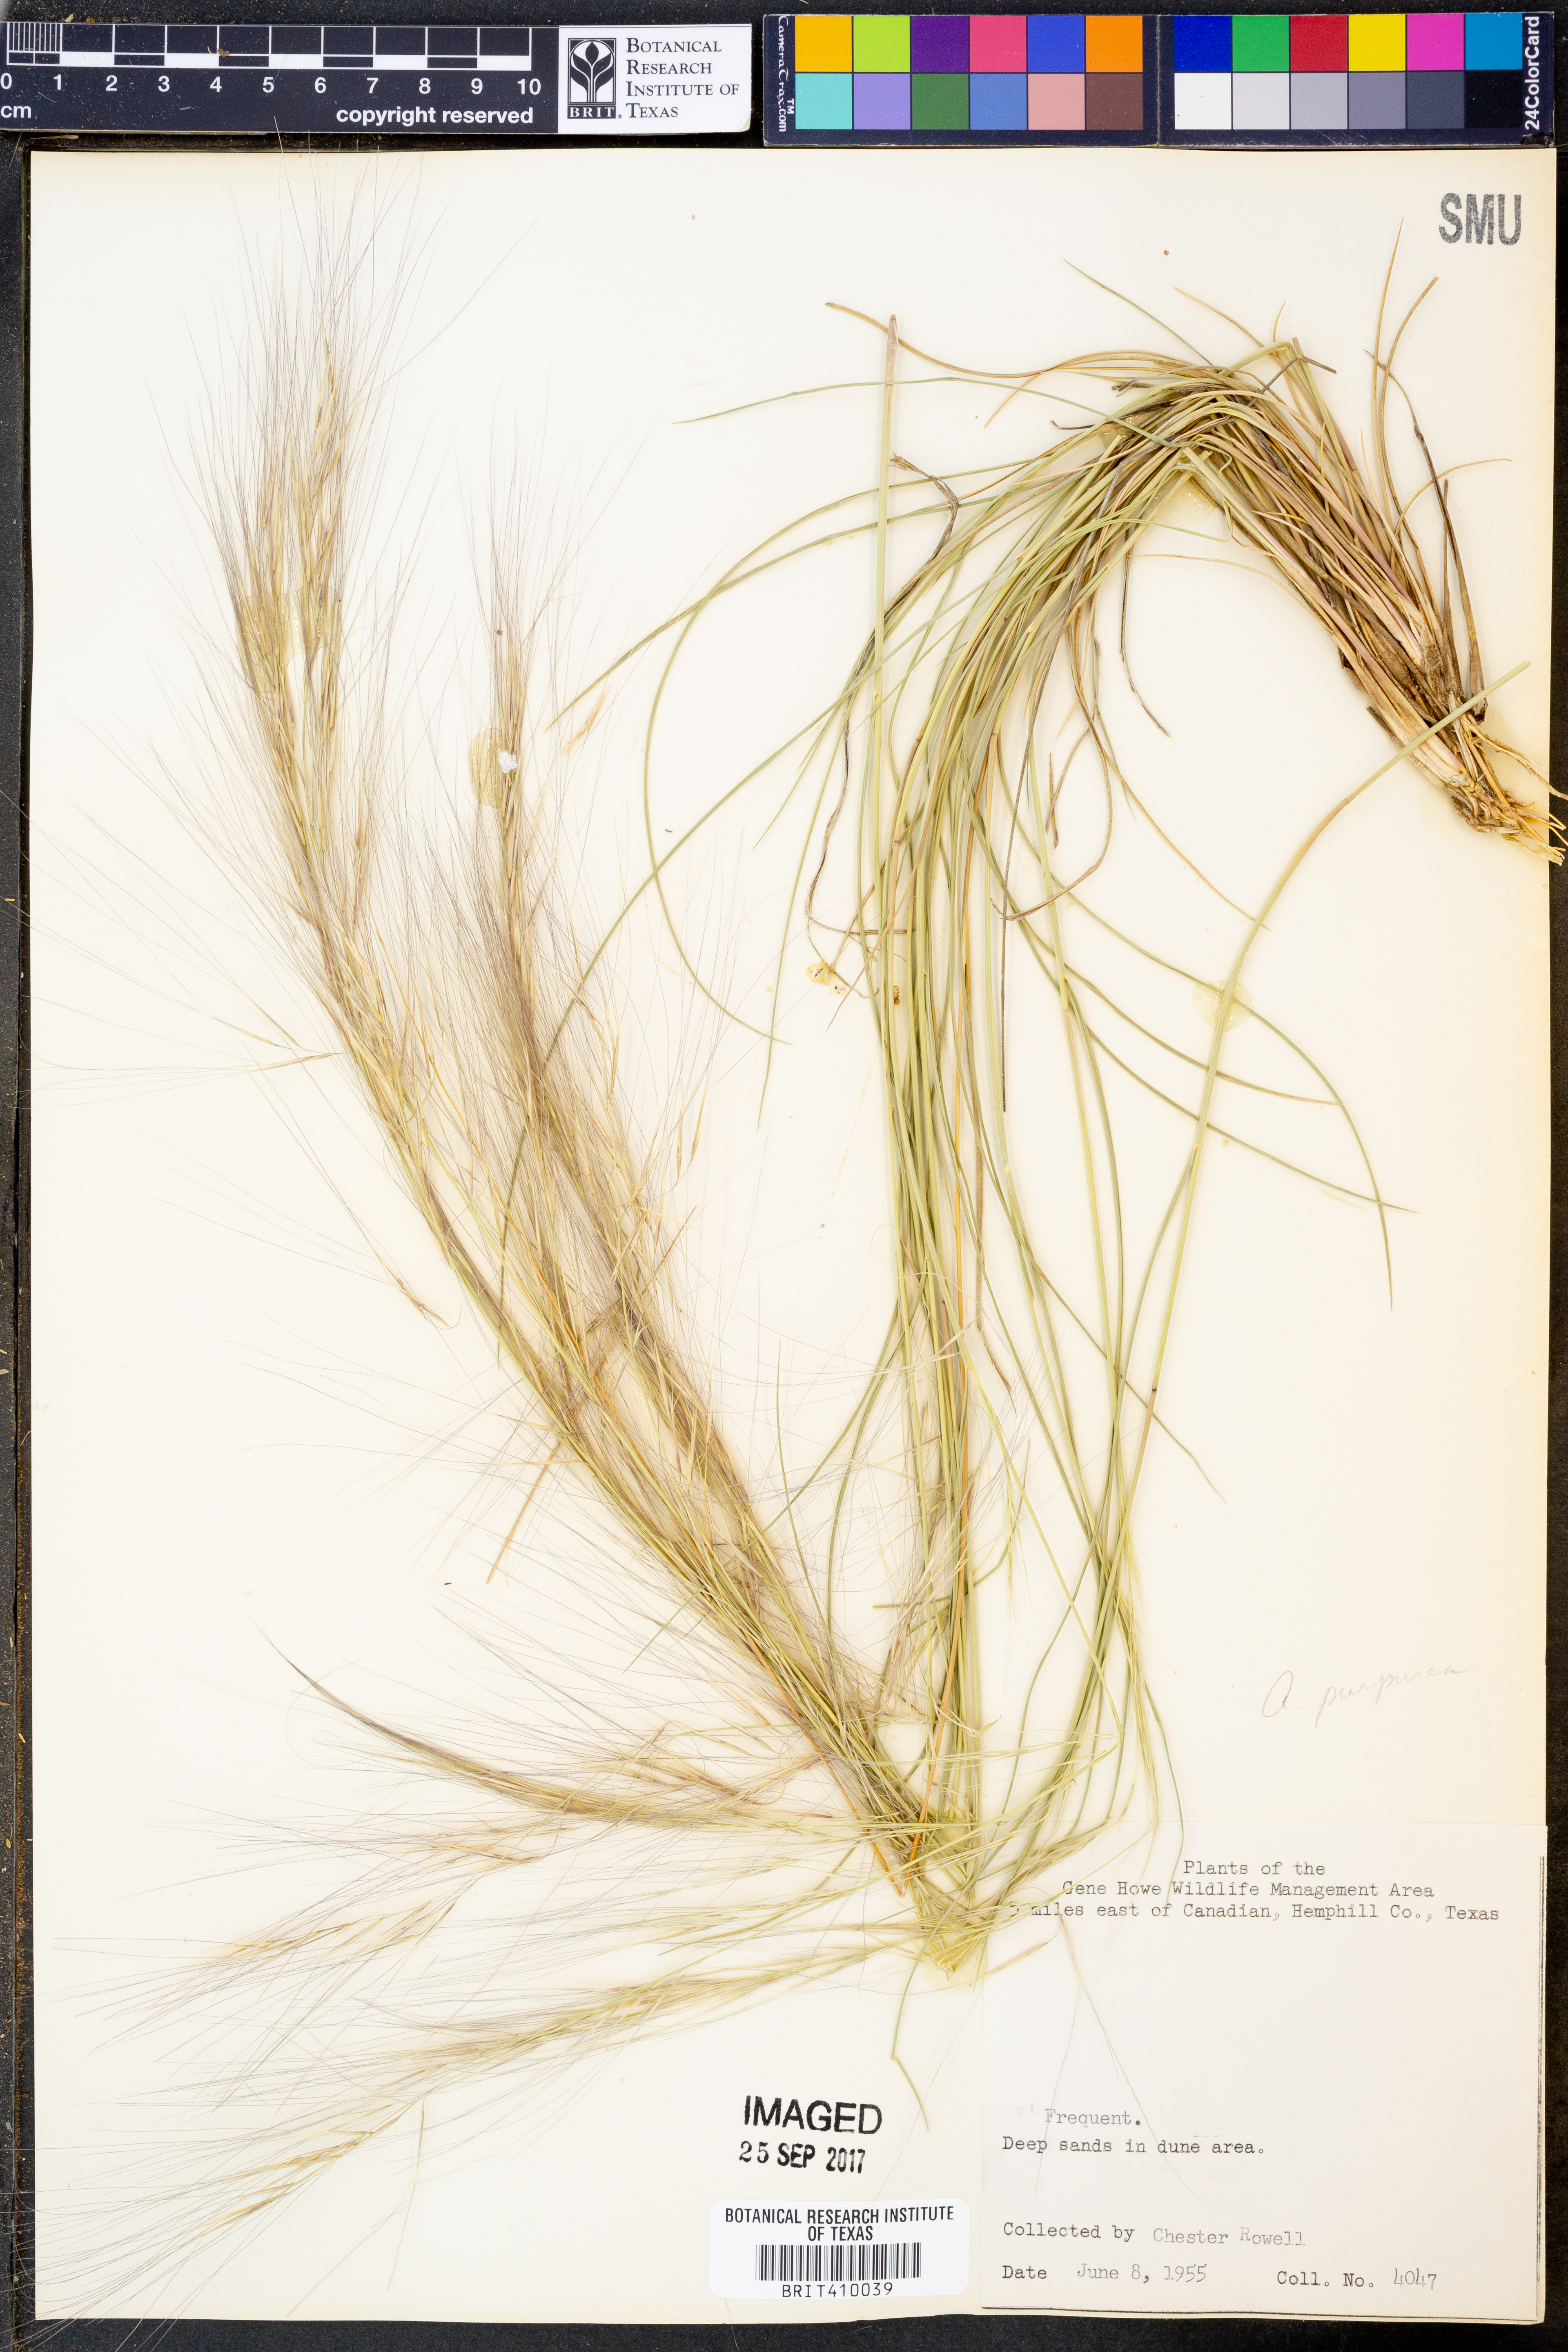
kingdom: Plantae
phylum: Tracheophyta
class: Liliopsida
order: Poales
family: Poaceae
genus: Aristida
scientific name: Aristida purpurea
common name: Purple threeawn
